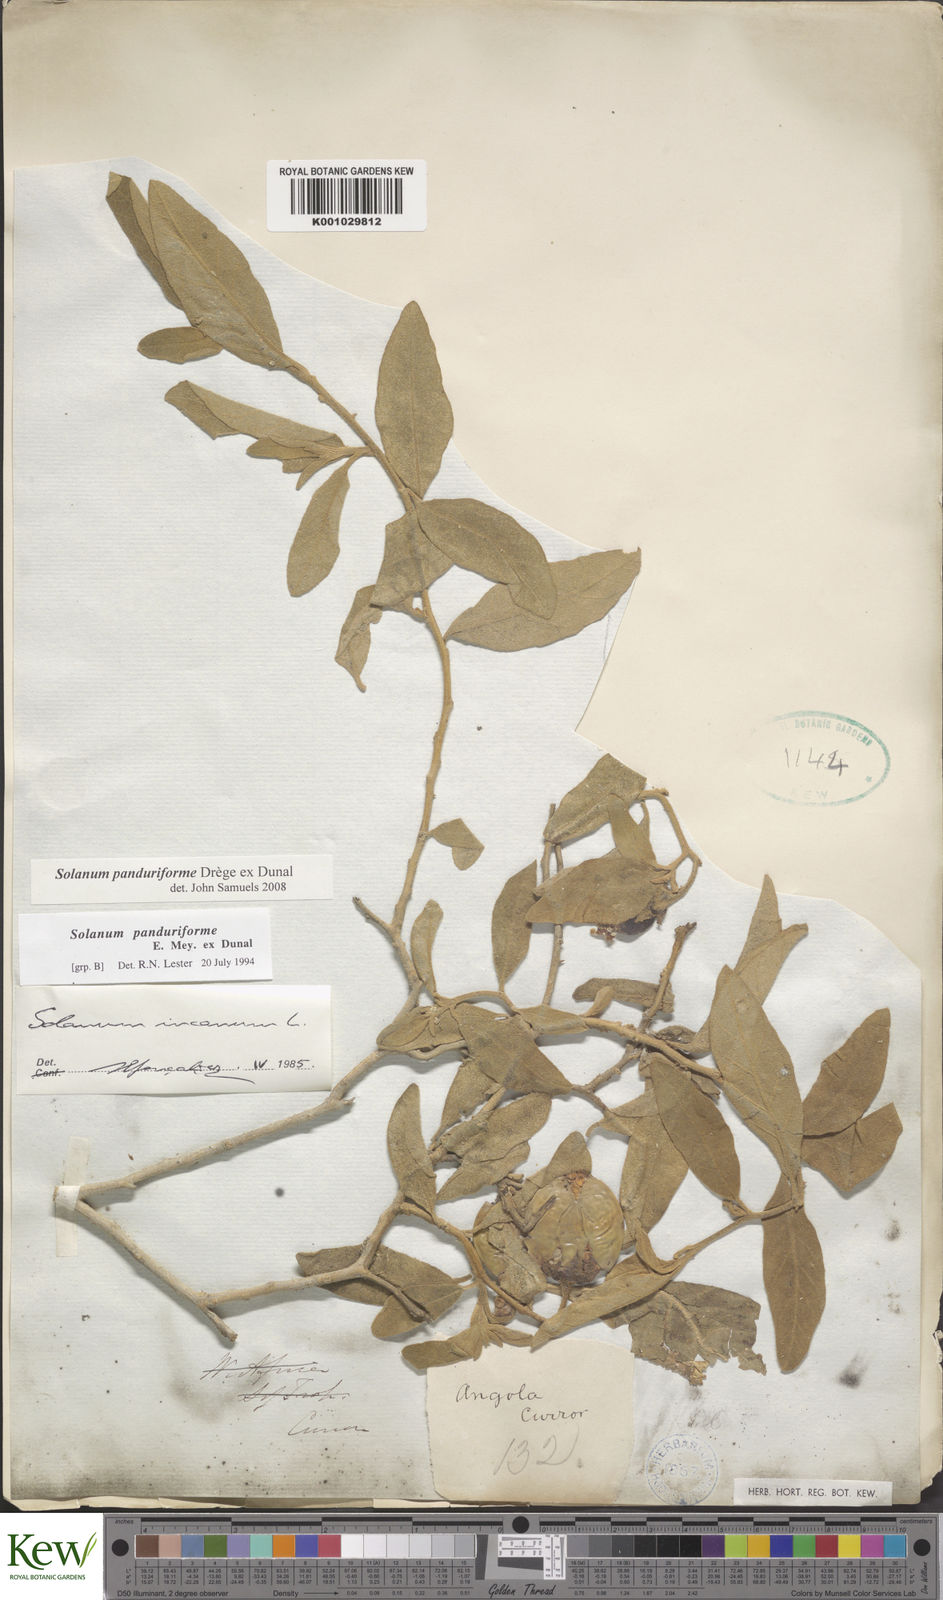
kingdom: Plantae
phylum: Tracheophyta
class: Magnoliopsida
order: Solanales
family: Solanaceae
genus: Solanum
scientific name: Solanum campylacanthum
